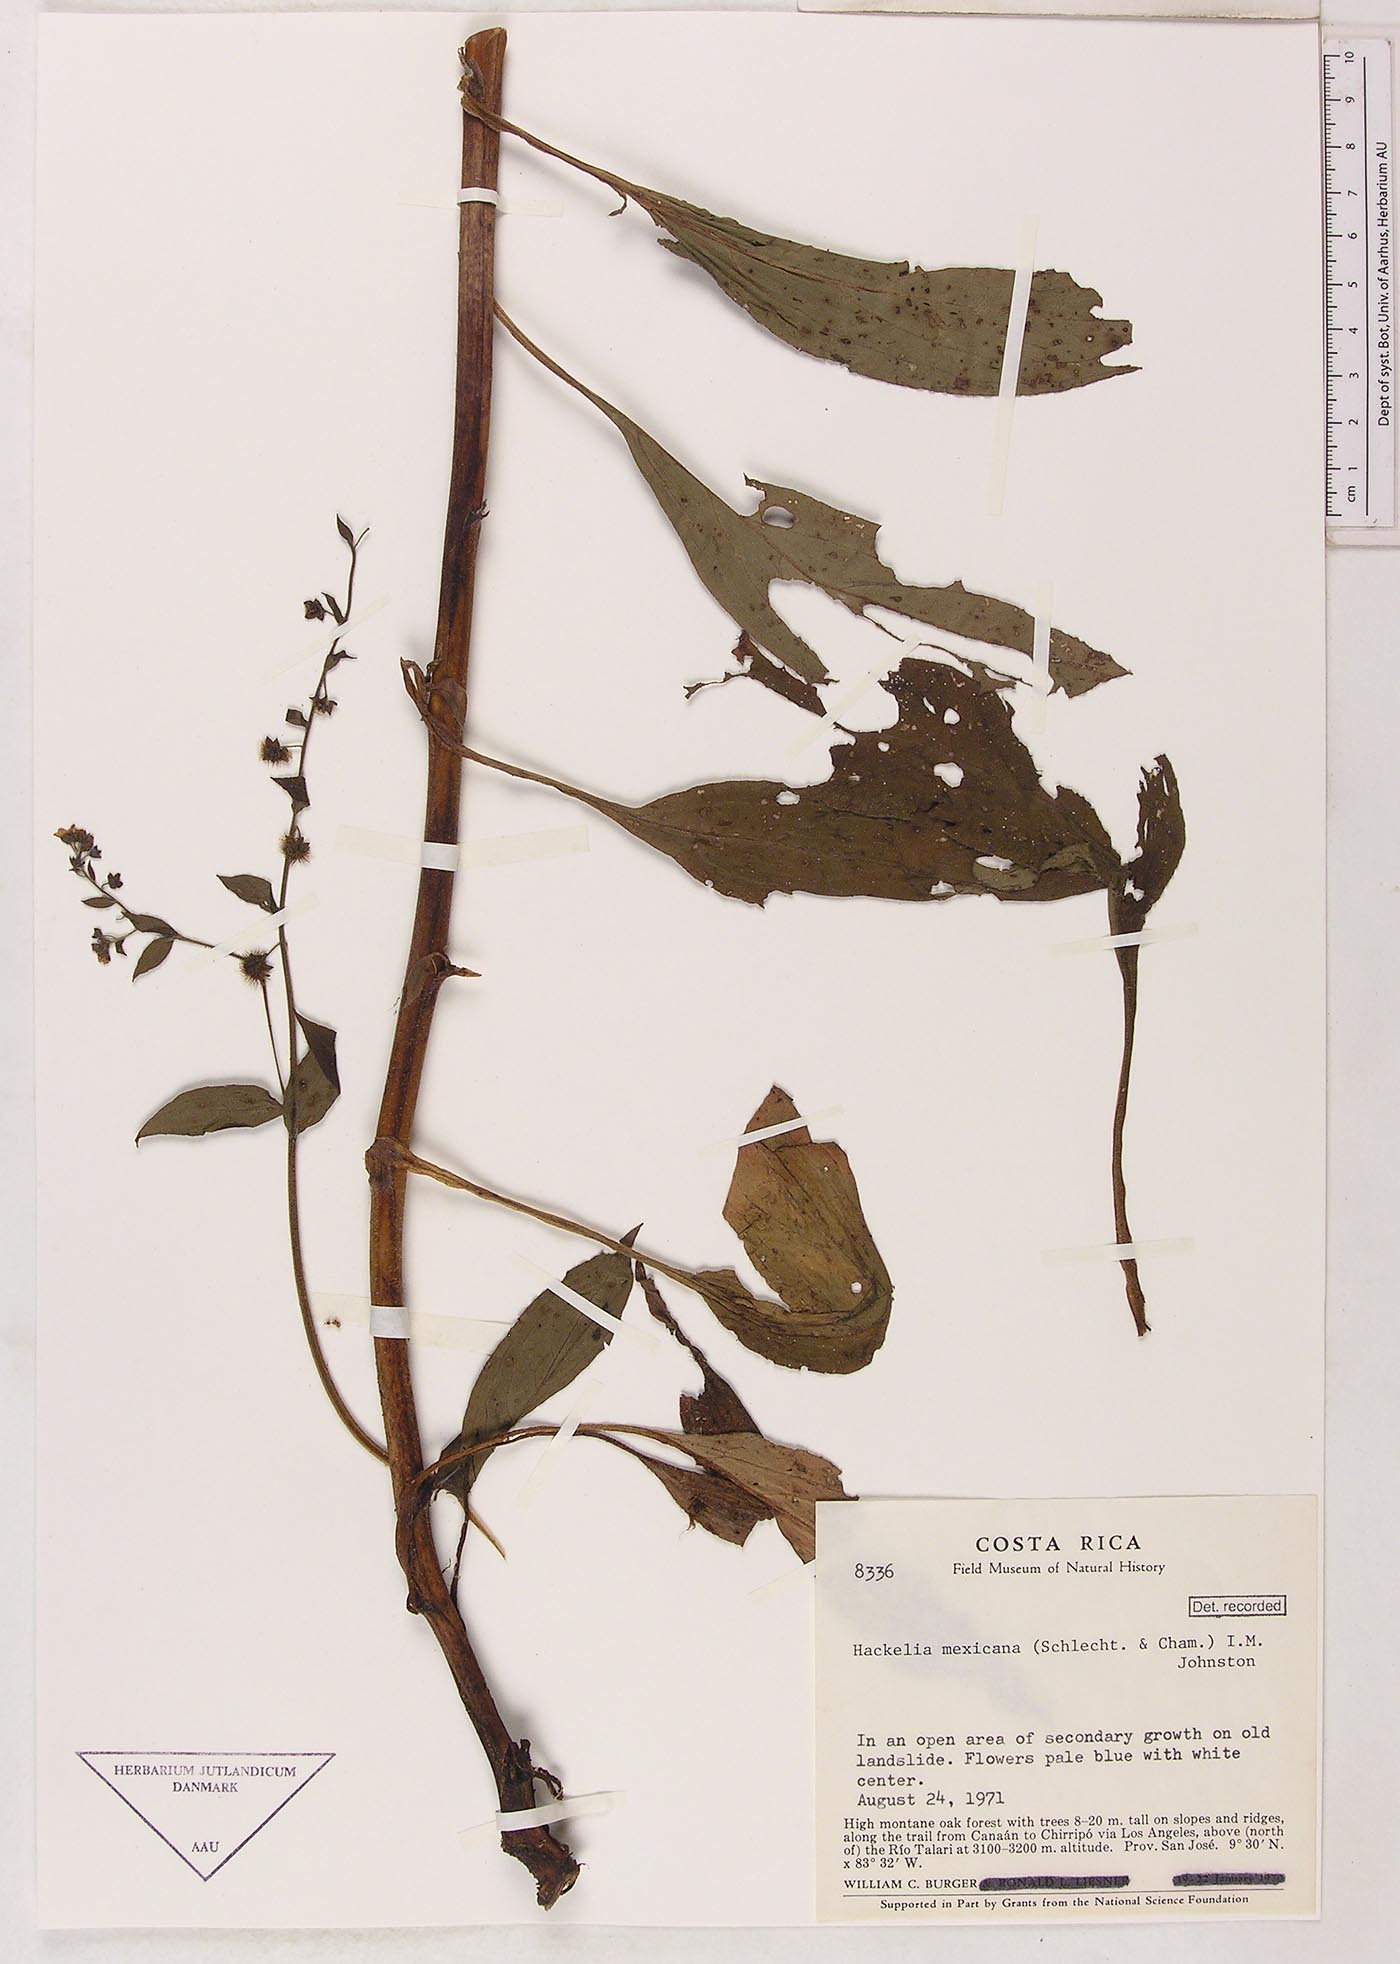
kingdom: Plantae
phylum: Tracheophyta
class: Magnoliopsida
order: Boraginales
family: Boraginaceae
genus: Hackelia
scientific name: Hackelia revoluta
